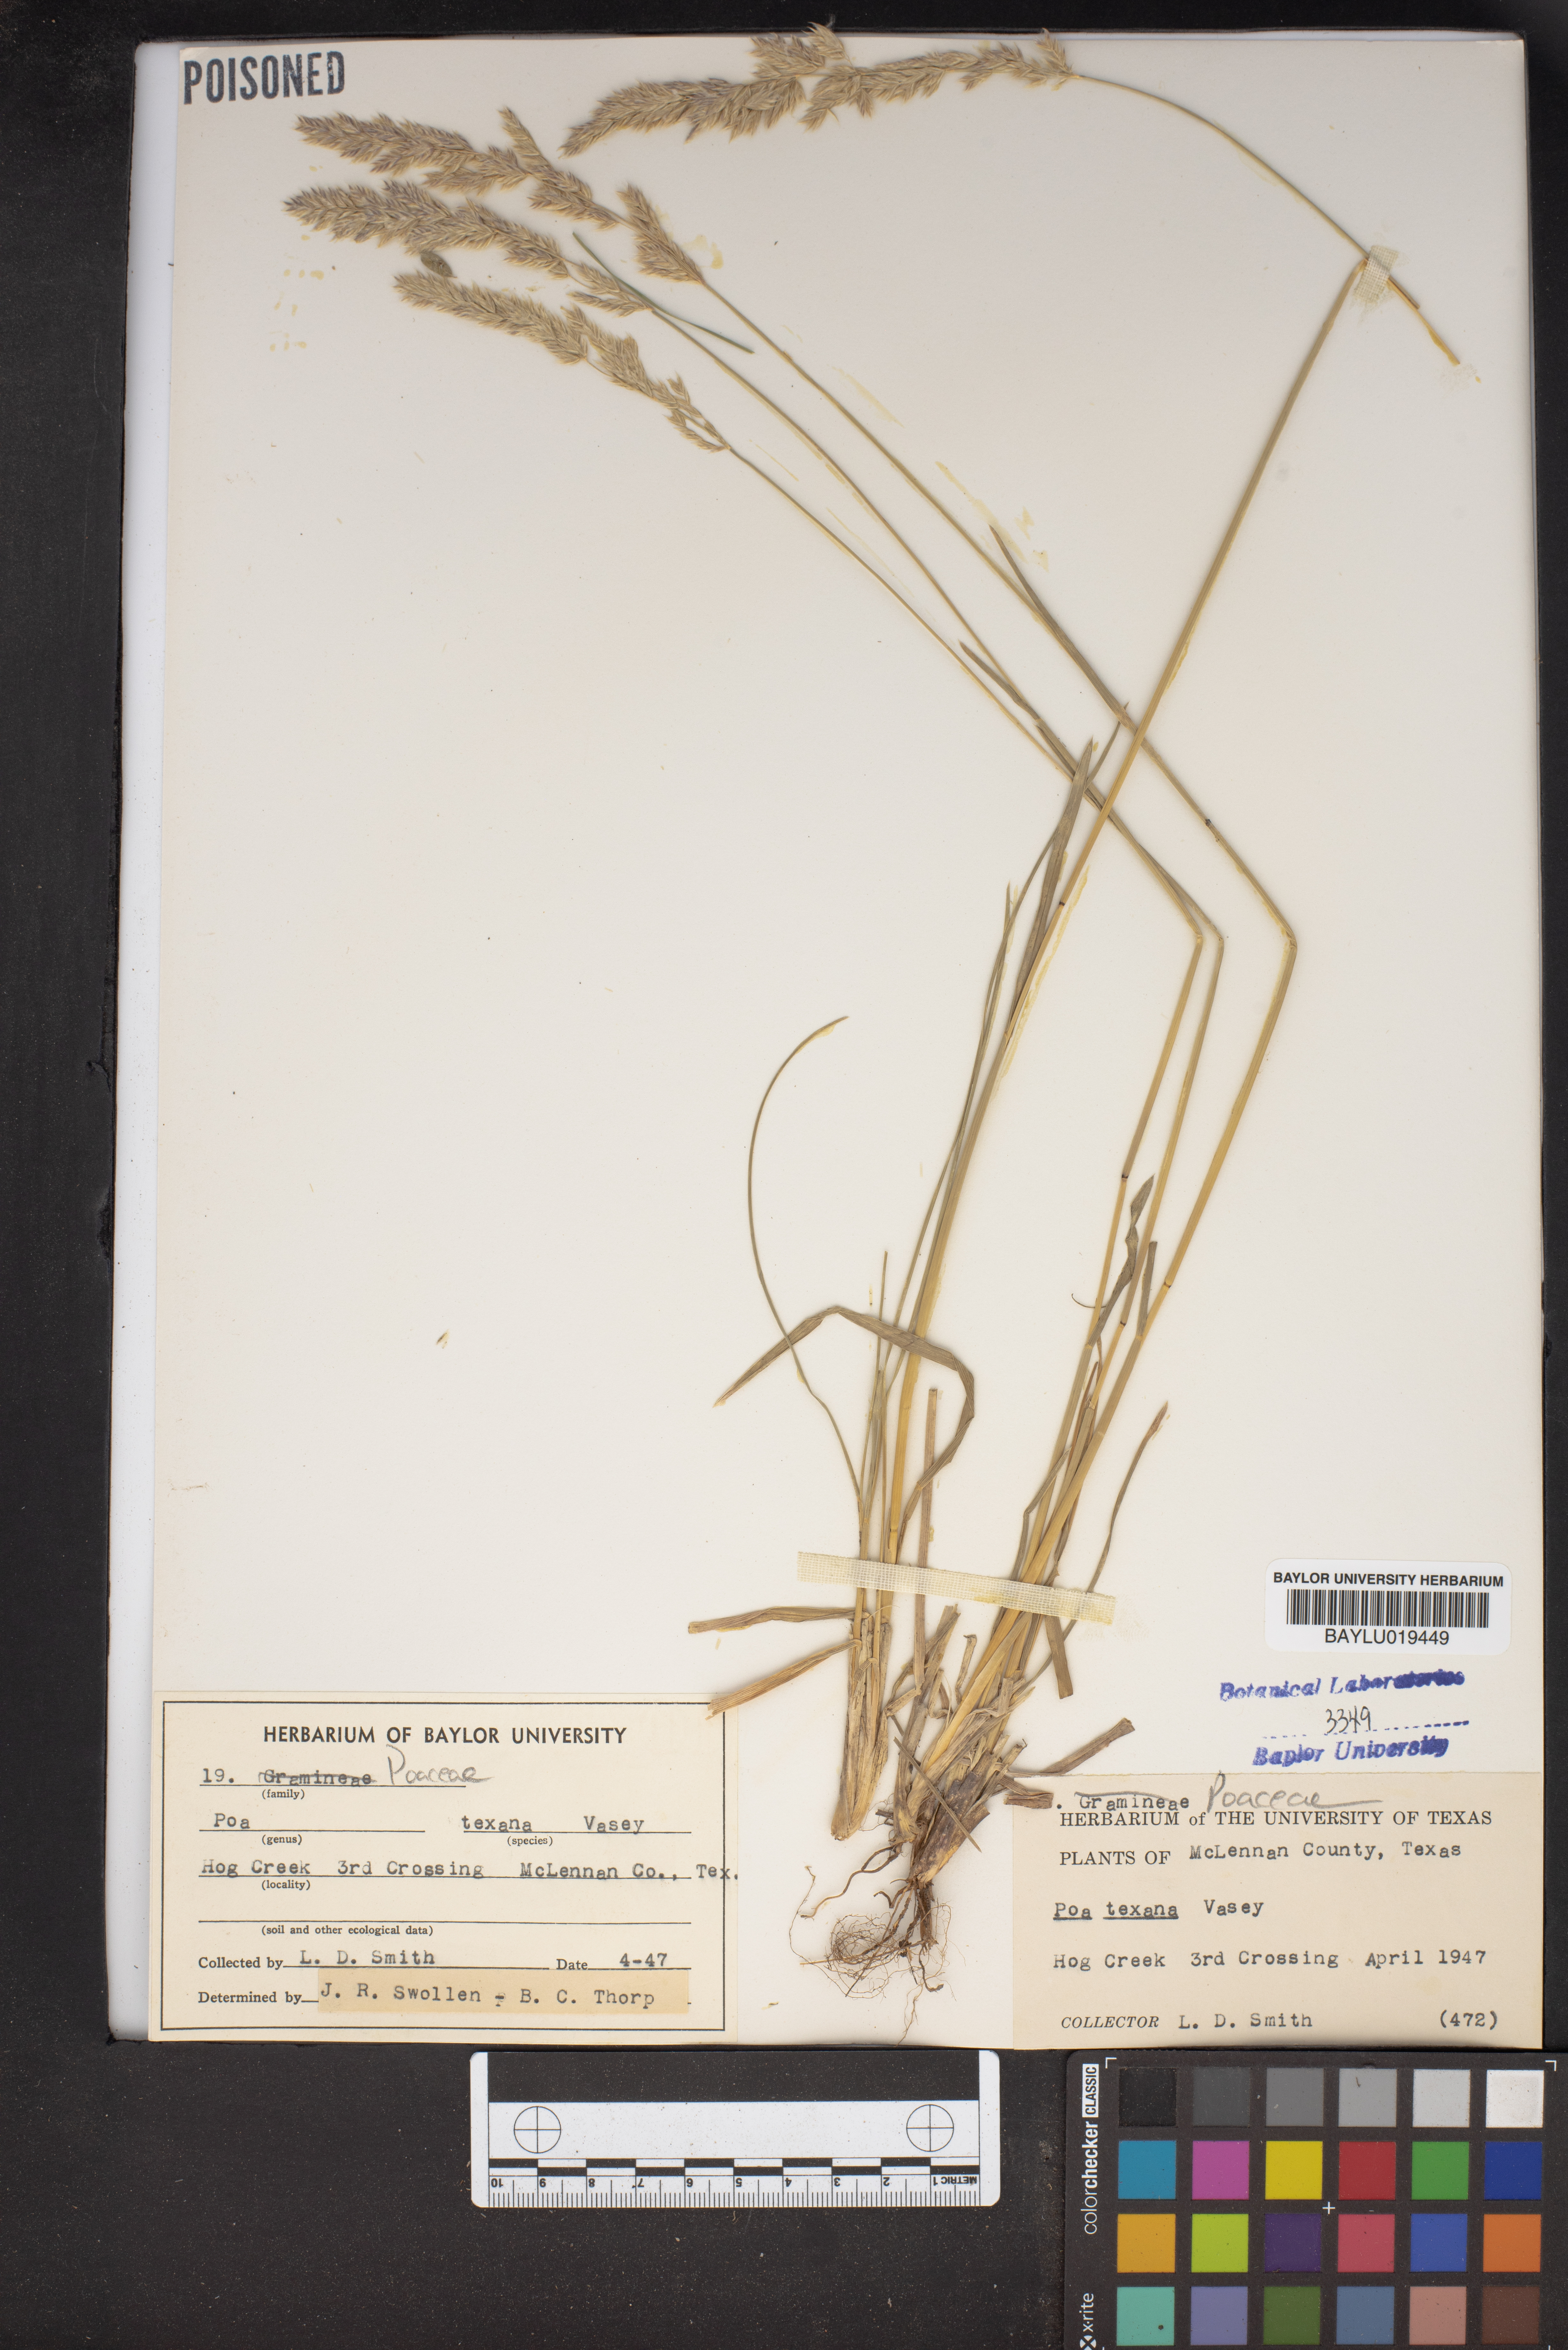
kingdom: Plantae
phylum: Tracheophyta
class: Liliopsida
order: Poales
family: Poaceae
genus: Allolepis
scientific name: Allolepis texana
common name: False salt grass
